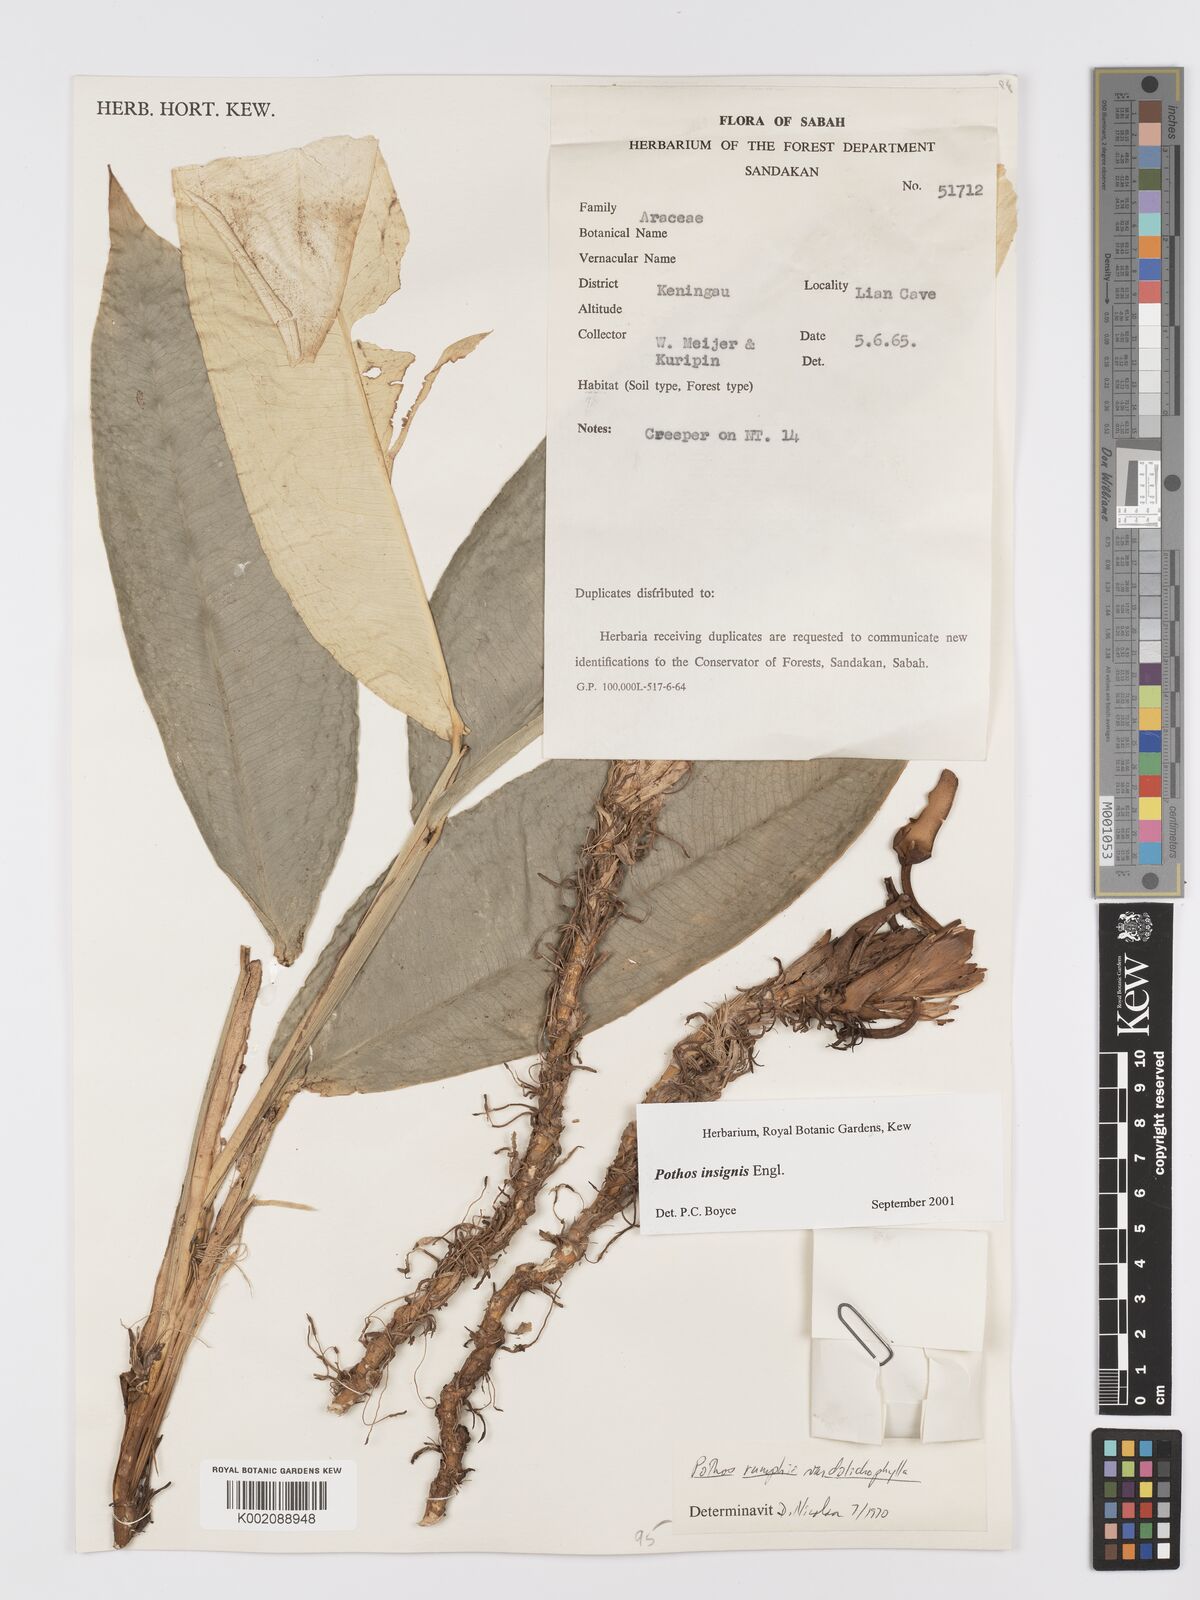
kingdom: Plantae
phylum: Tracheophyta
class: Liliopsida
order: Alismatales
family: Araceae
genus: Pothos
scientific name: Pothos insignis
